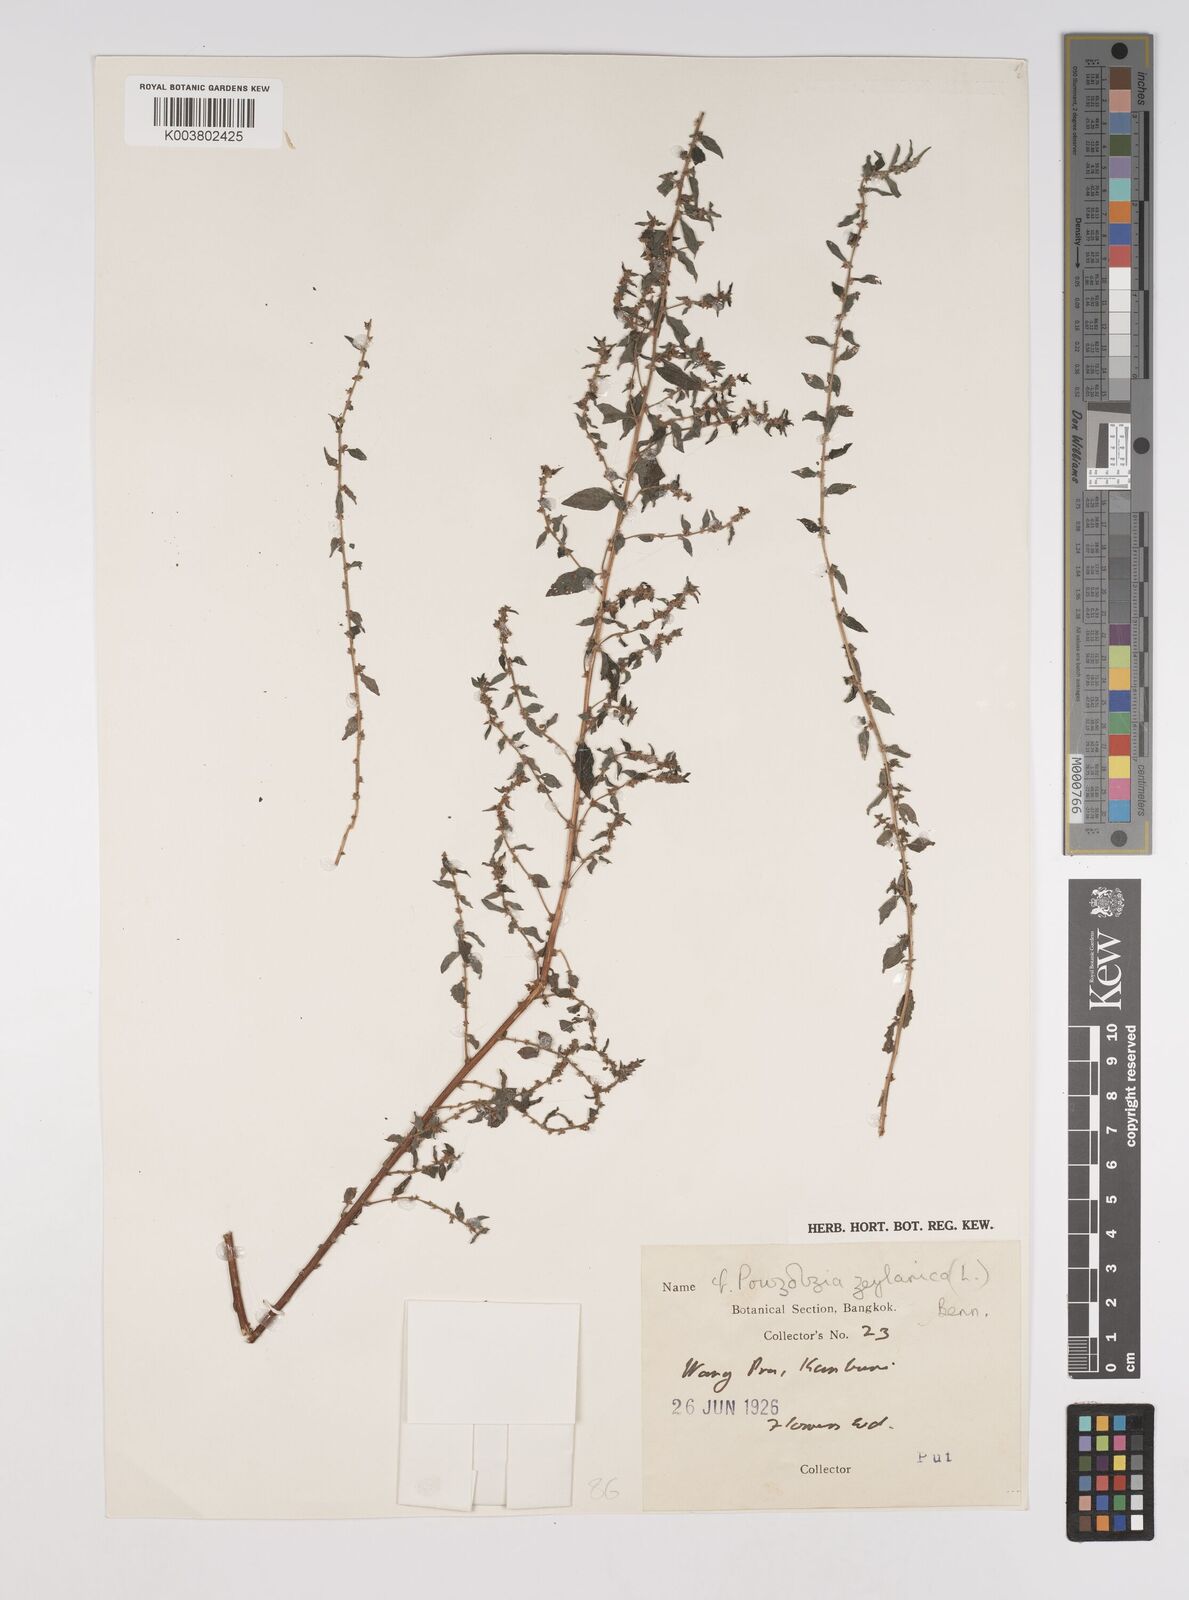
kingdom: Plantae
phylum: Tracheophyta
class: Magnoliopsida
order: Rosales
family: Urticaceae
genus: Pouzolzia
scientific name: Pouzolzia zeylanica
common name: Graceful pouzolzsbush
